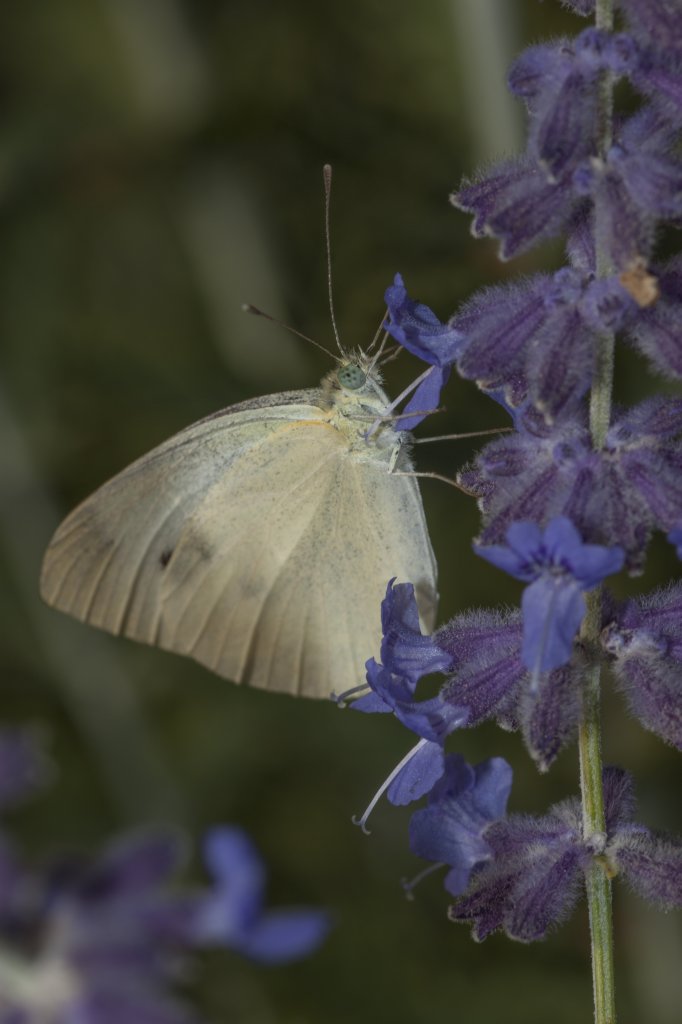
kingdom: Animalia
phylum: Arthropoda
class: Insecta
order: Lepidoptera
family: Pieridae
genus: Pieris
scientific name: Pieris rapae
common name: Cabbage White
